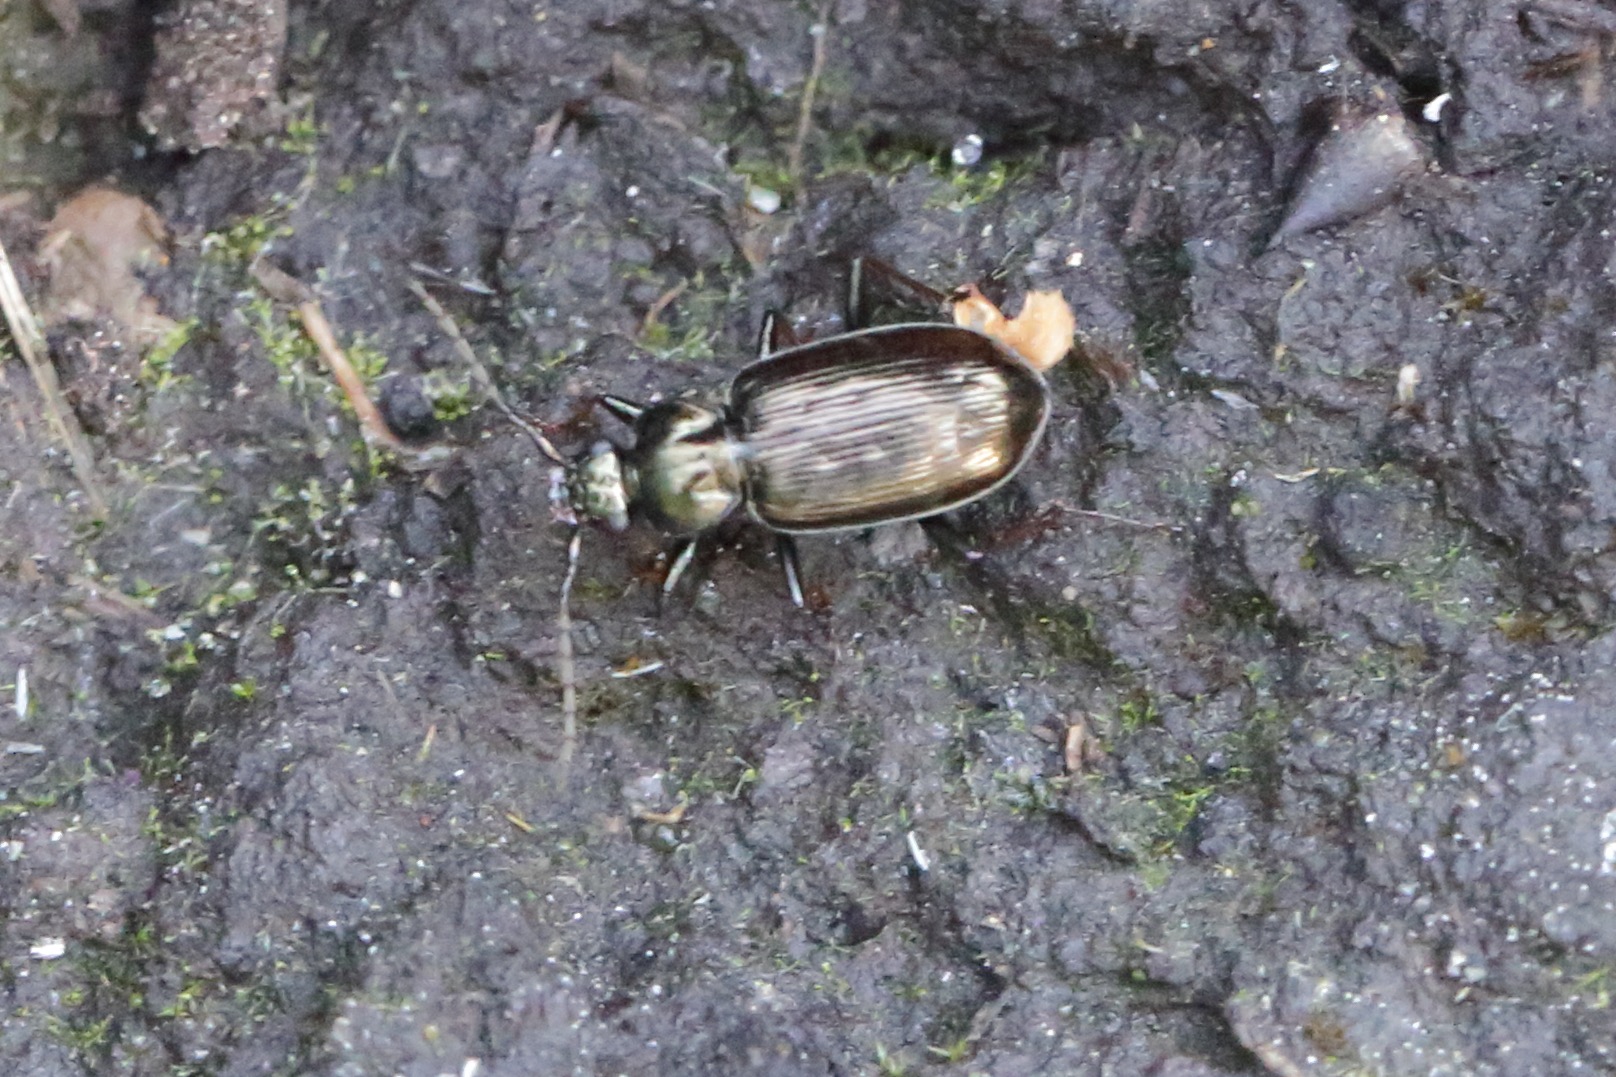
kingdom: Animalia
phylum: Arthropoda
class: Insecta
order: Coleoptera
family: Carabidae
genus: Loricera
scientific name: Loricera pilicornis
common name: Børsteløber
